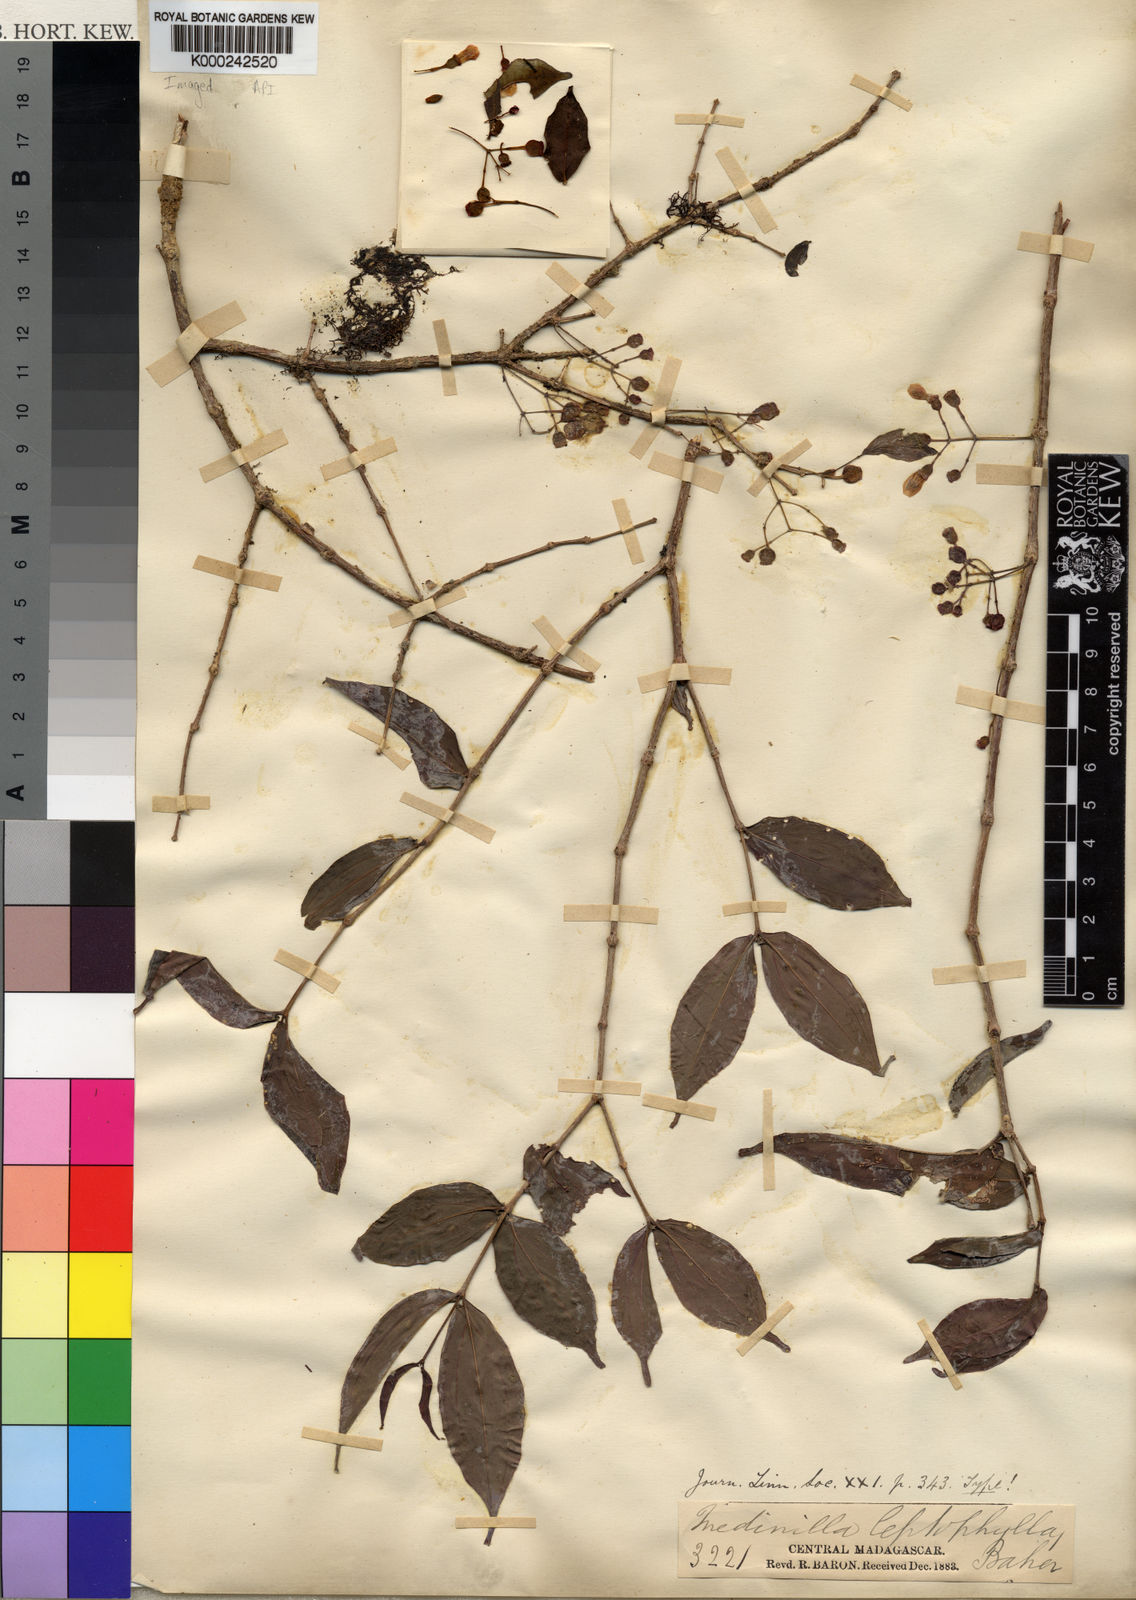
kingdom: Plantae
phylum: Tracheophyta
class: Magnoliopsida
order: Myrtales
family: Melastomataceae
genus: Medinilla
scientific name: Medinilla leptophylla
